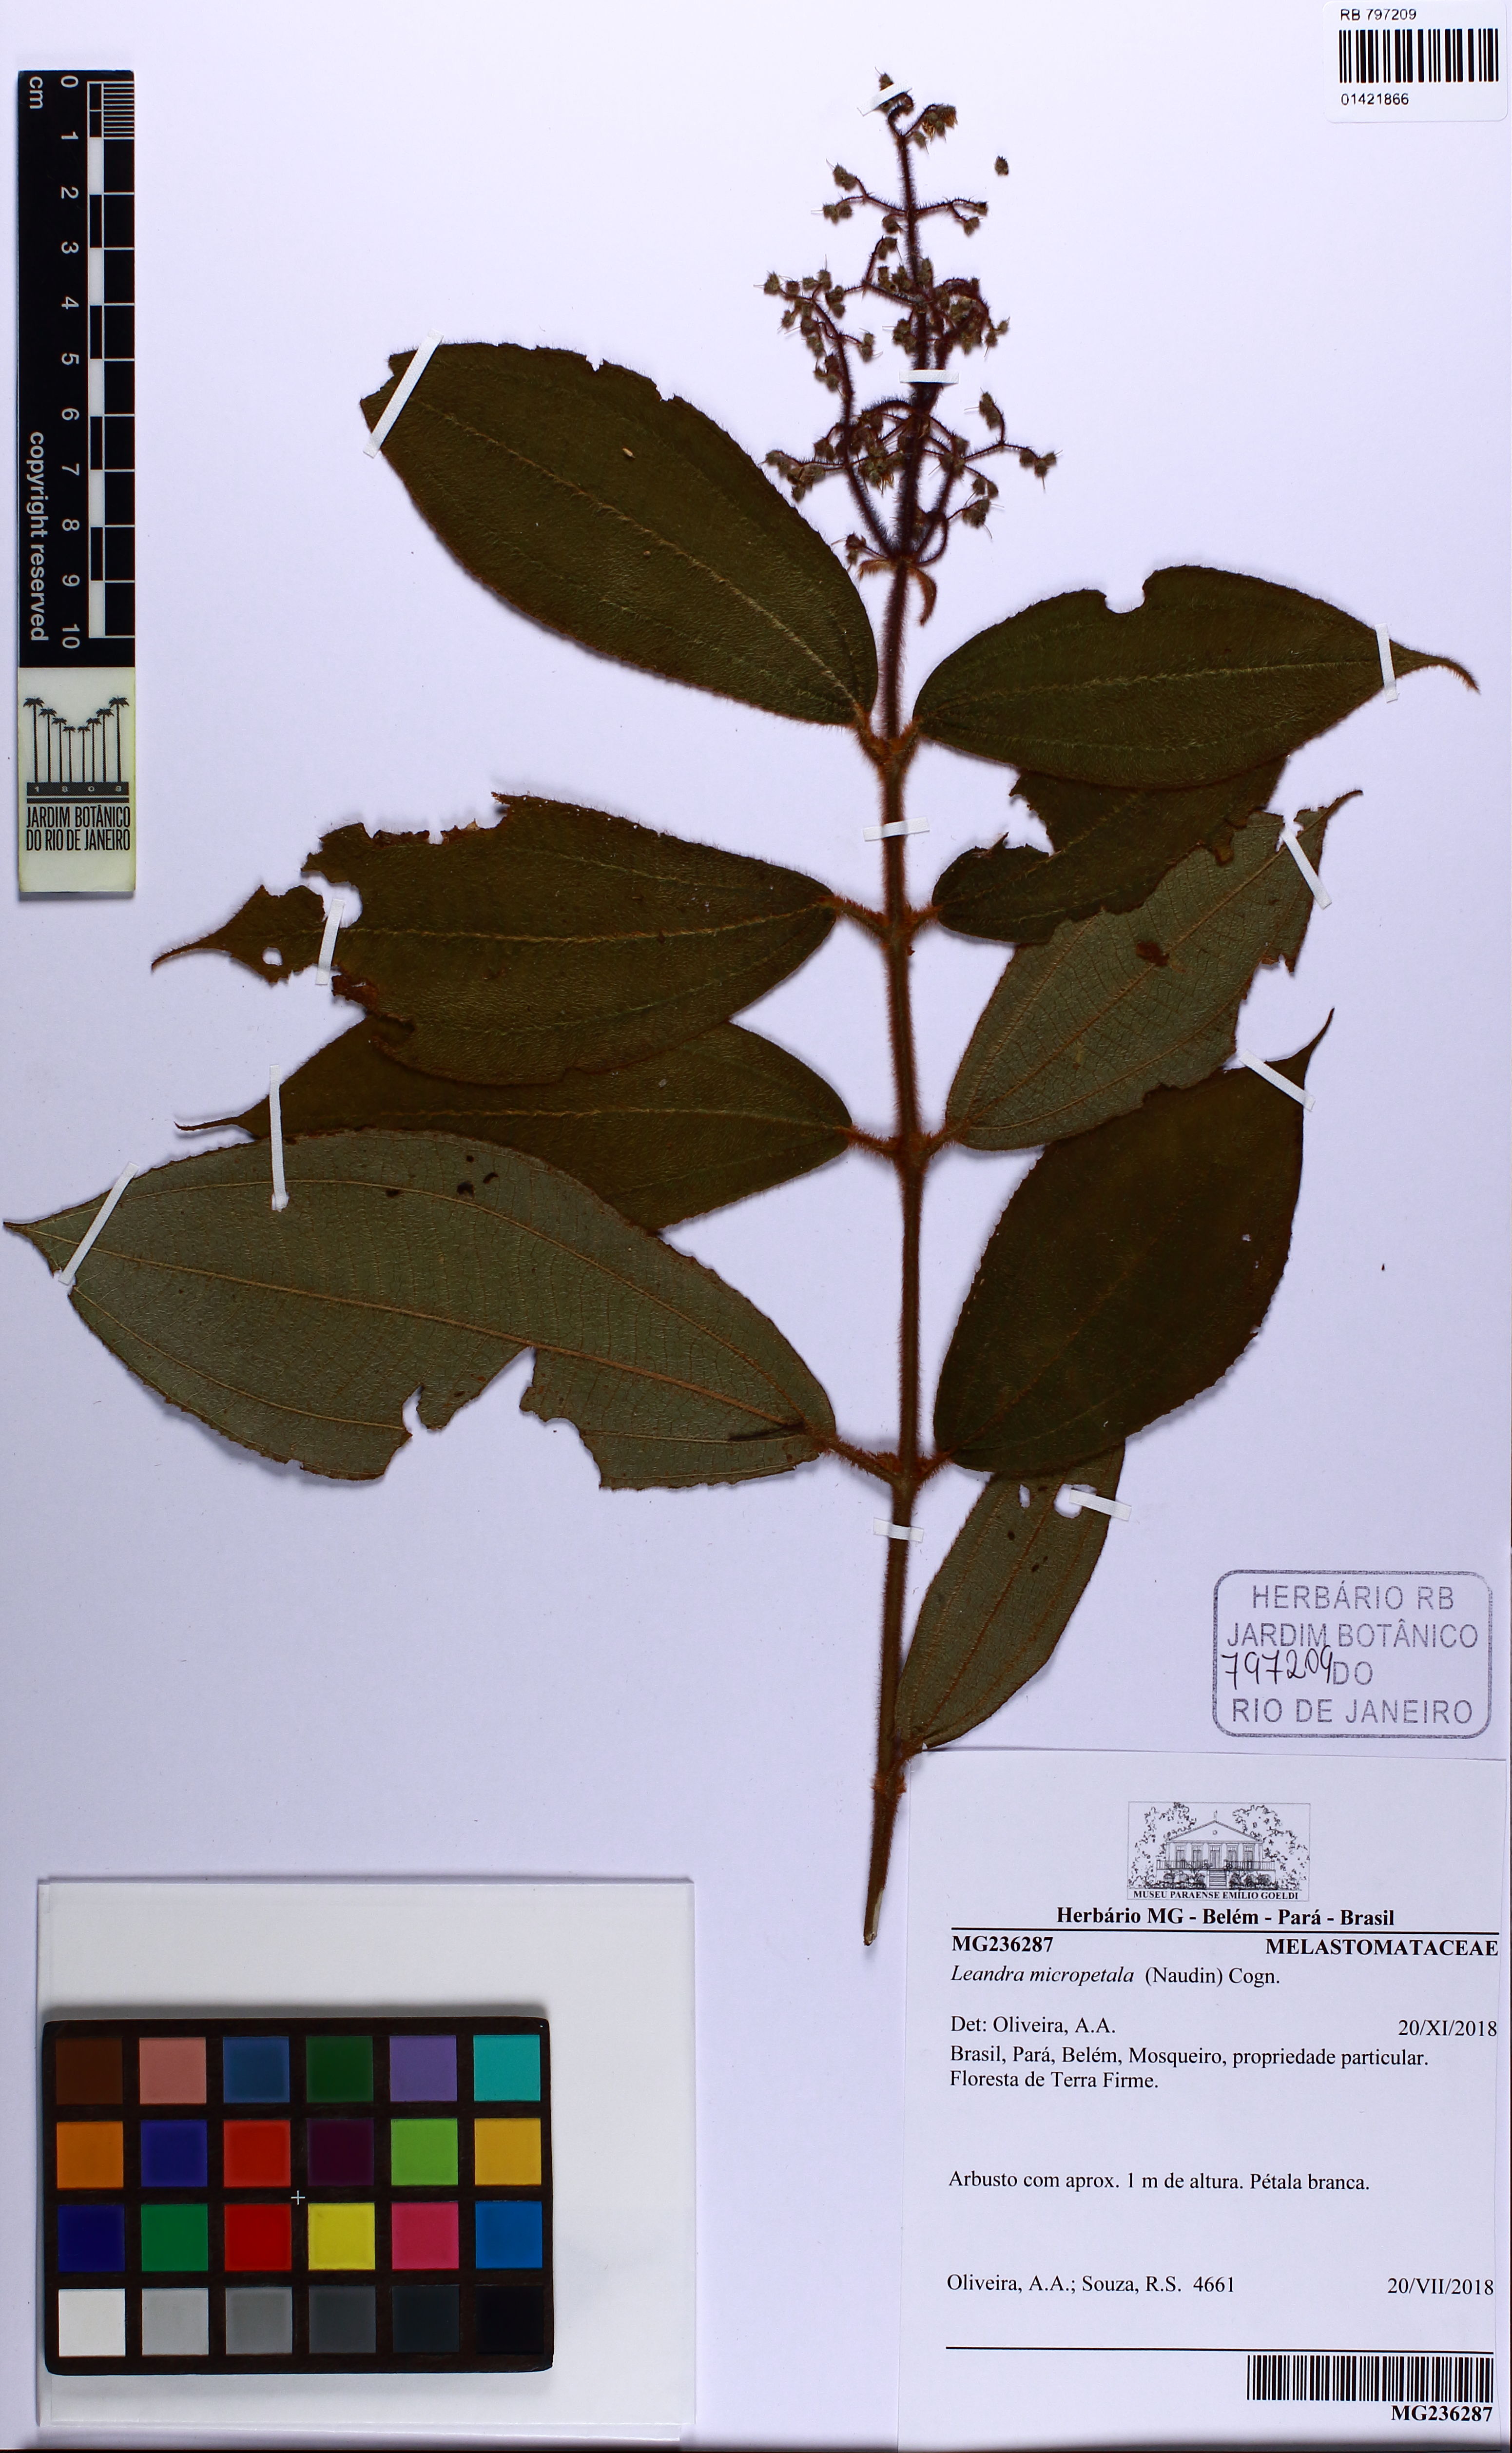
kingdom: Plantae
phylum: Tracheophyta
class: Magnoliopsida
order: Myrtales
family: Melastomataceae
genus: Miconia
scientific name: Miconia nanopetala
